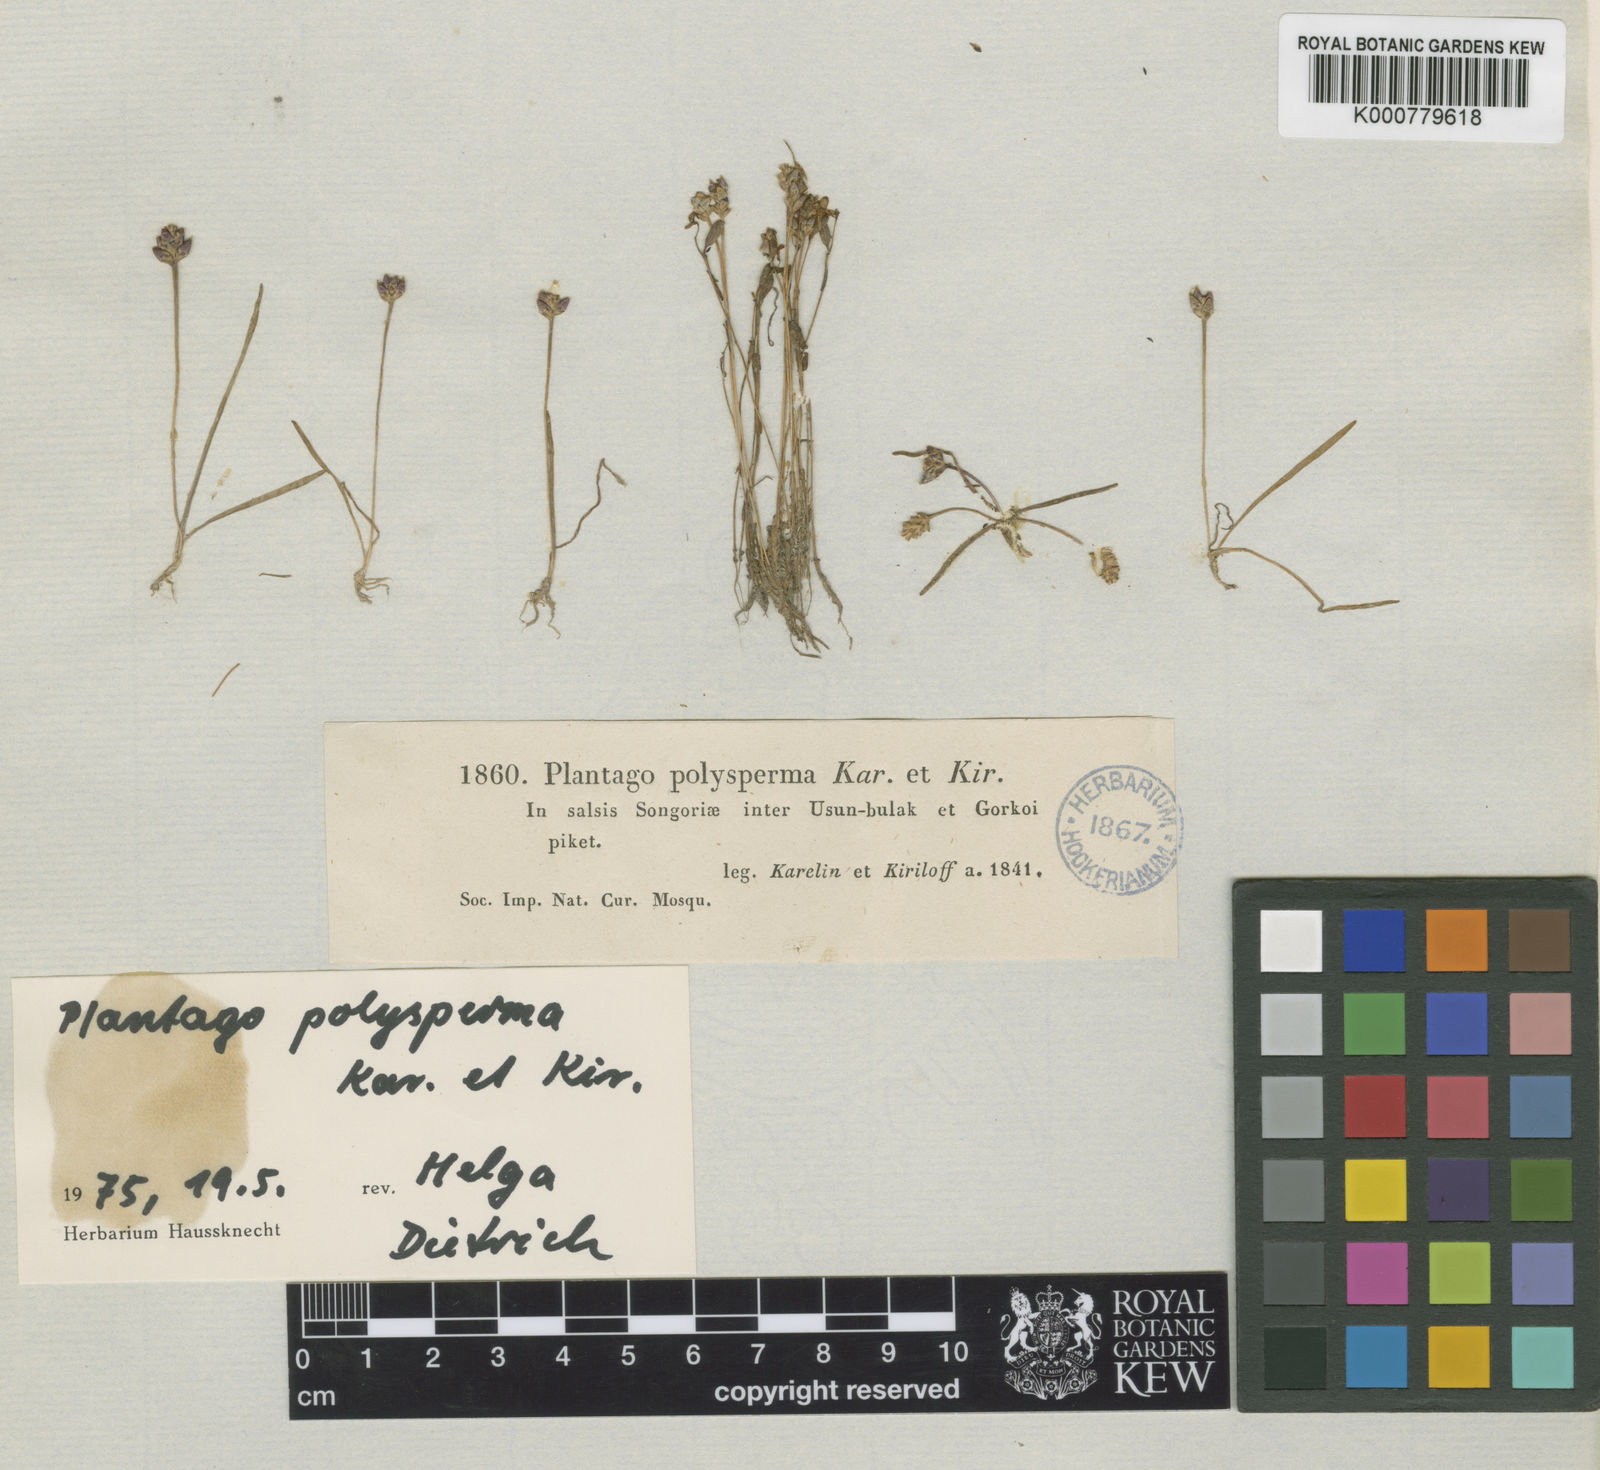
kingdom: Plantae
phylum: Tracheophyta
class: Magnoliopsida
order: Lamiales
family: Plantaginaceae
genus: Plantago
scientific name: Plantago polysperma
